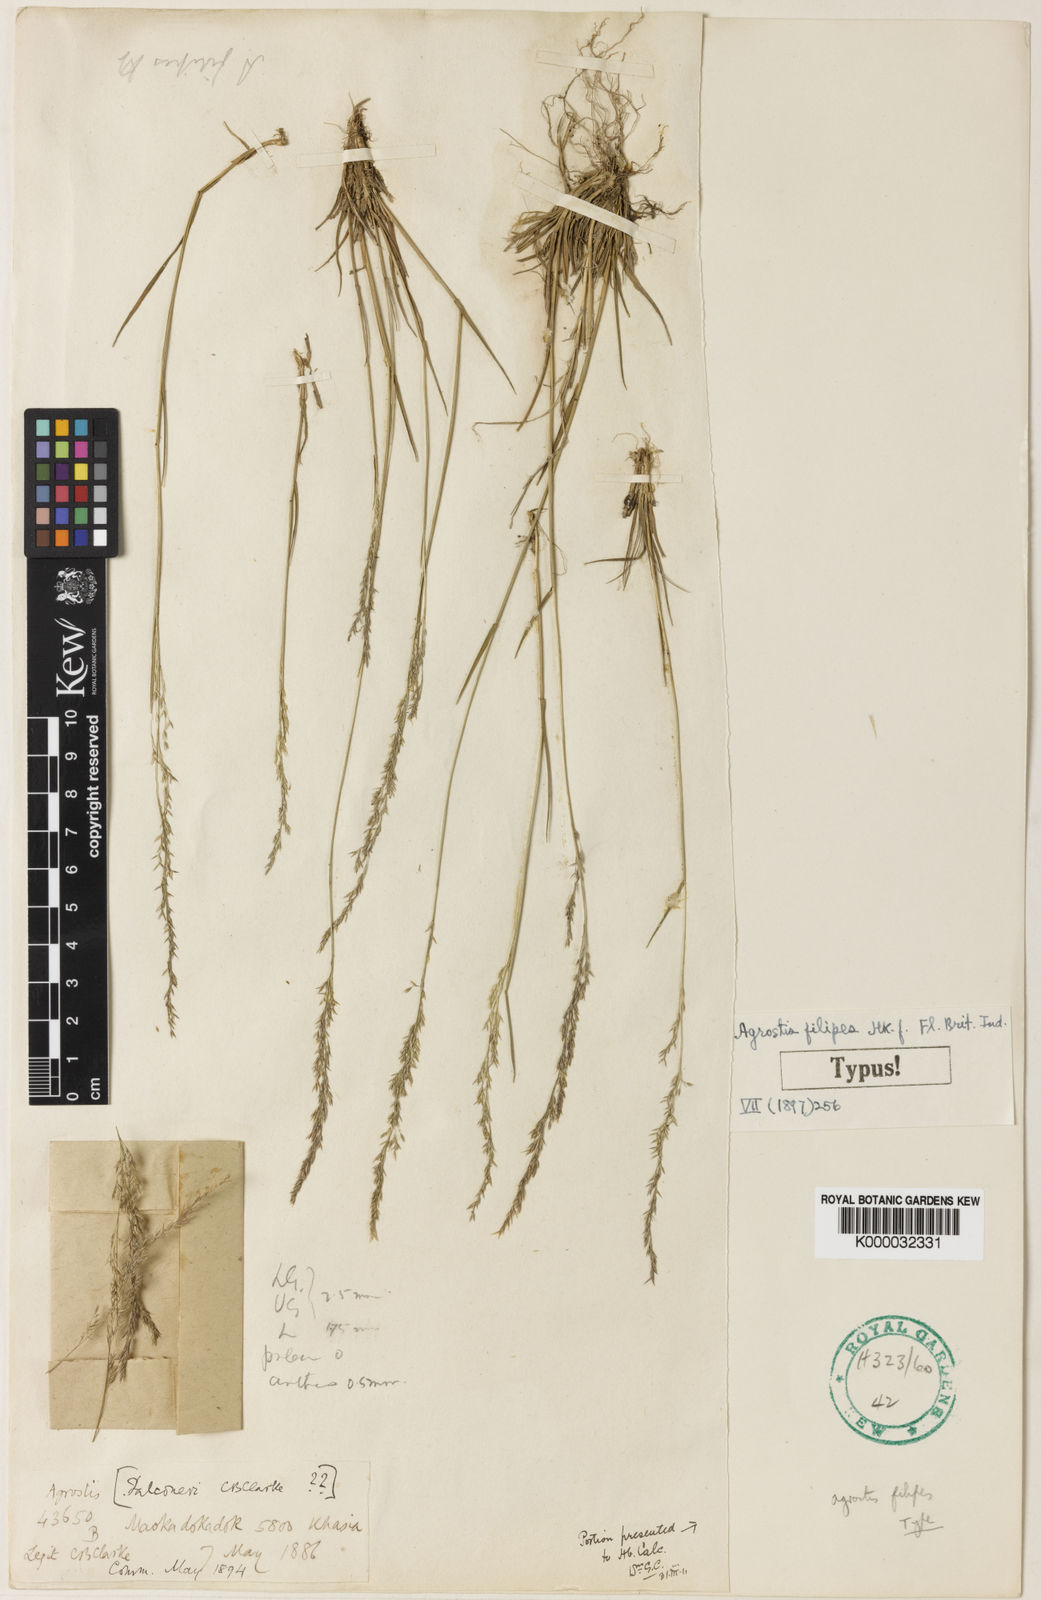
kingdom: Plantae
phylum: Tracheophyta
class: Liliopsida
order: Poales
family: Poaceae
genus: Agrostis
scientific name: Agrostis filipes
